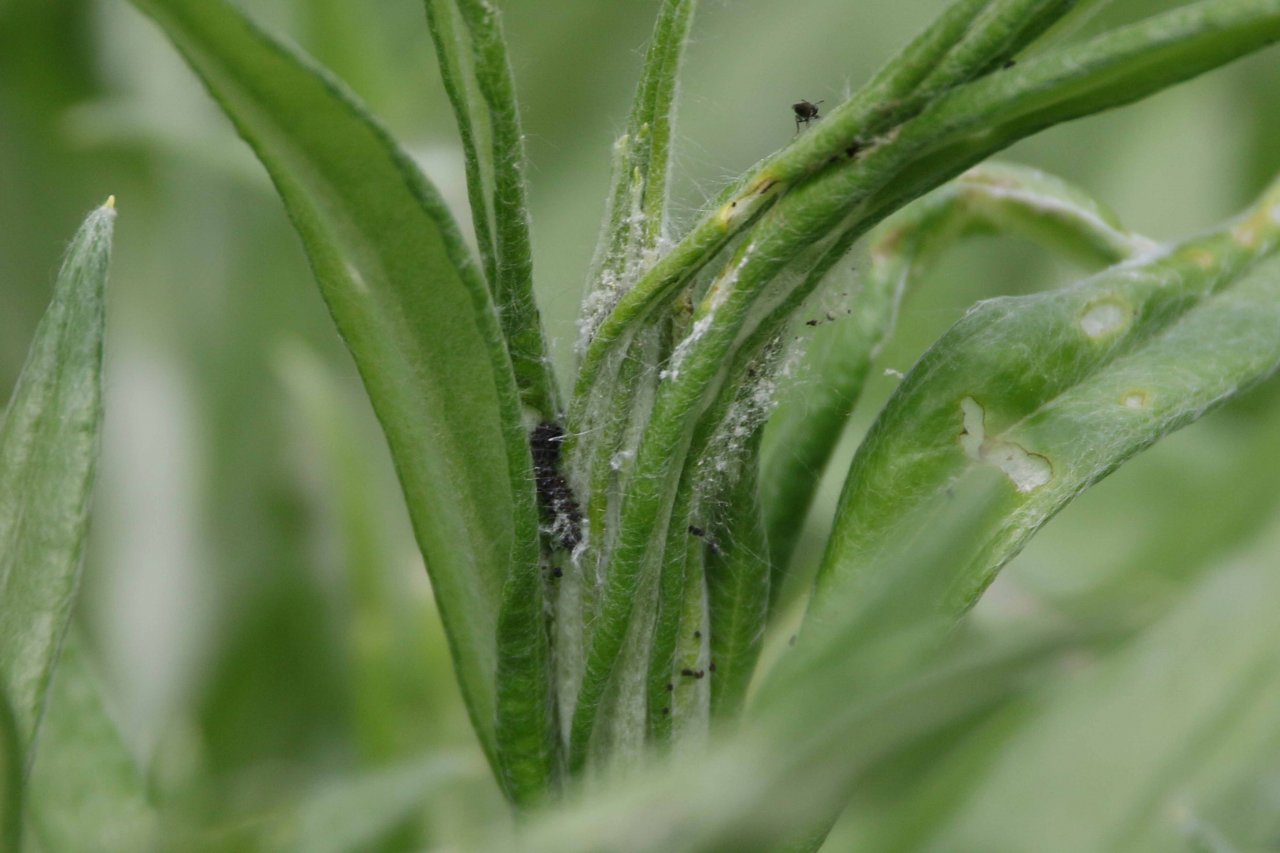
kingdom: Animalia
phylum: Arthropoda
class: Insecta
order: Lepidoptera
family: Nymphalidae
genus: Vanessa
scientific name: Vanessa virginiensis
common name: American Lady
